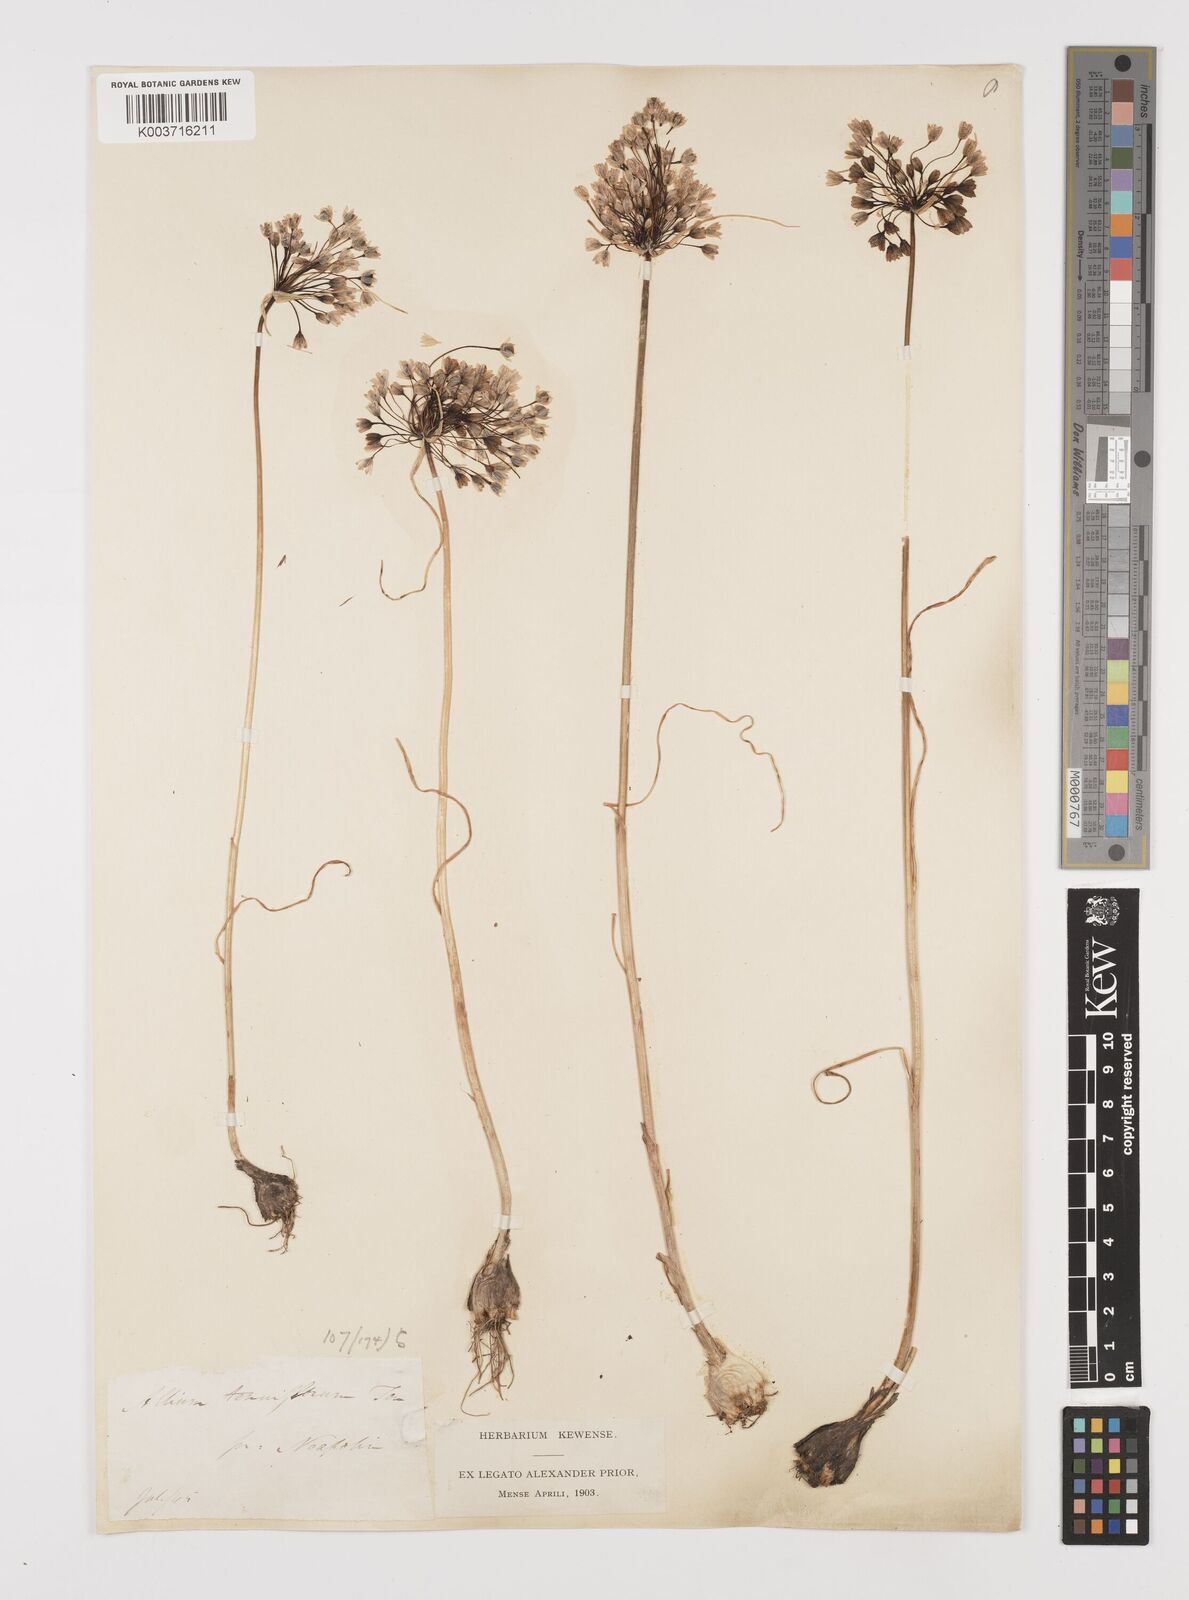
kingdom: Plantae
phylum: Tracheophyta
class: Liliopsida
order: Asparagales
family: Amaryllidaceae
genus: Allium
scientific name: Allium tenuiflorum
